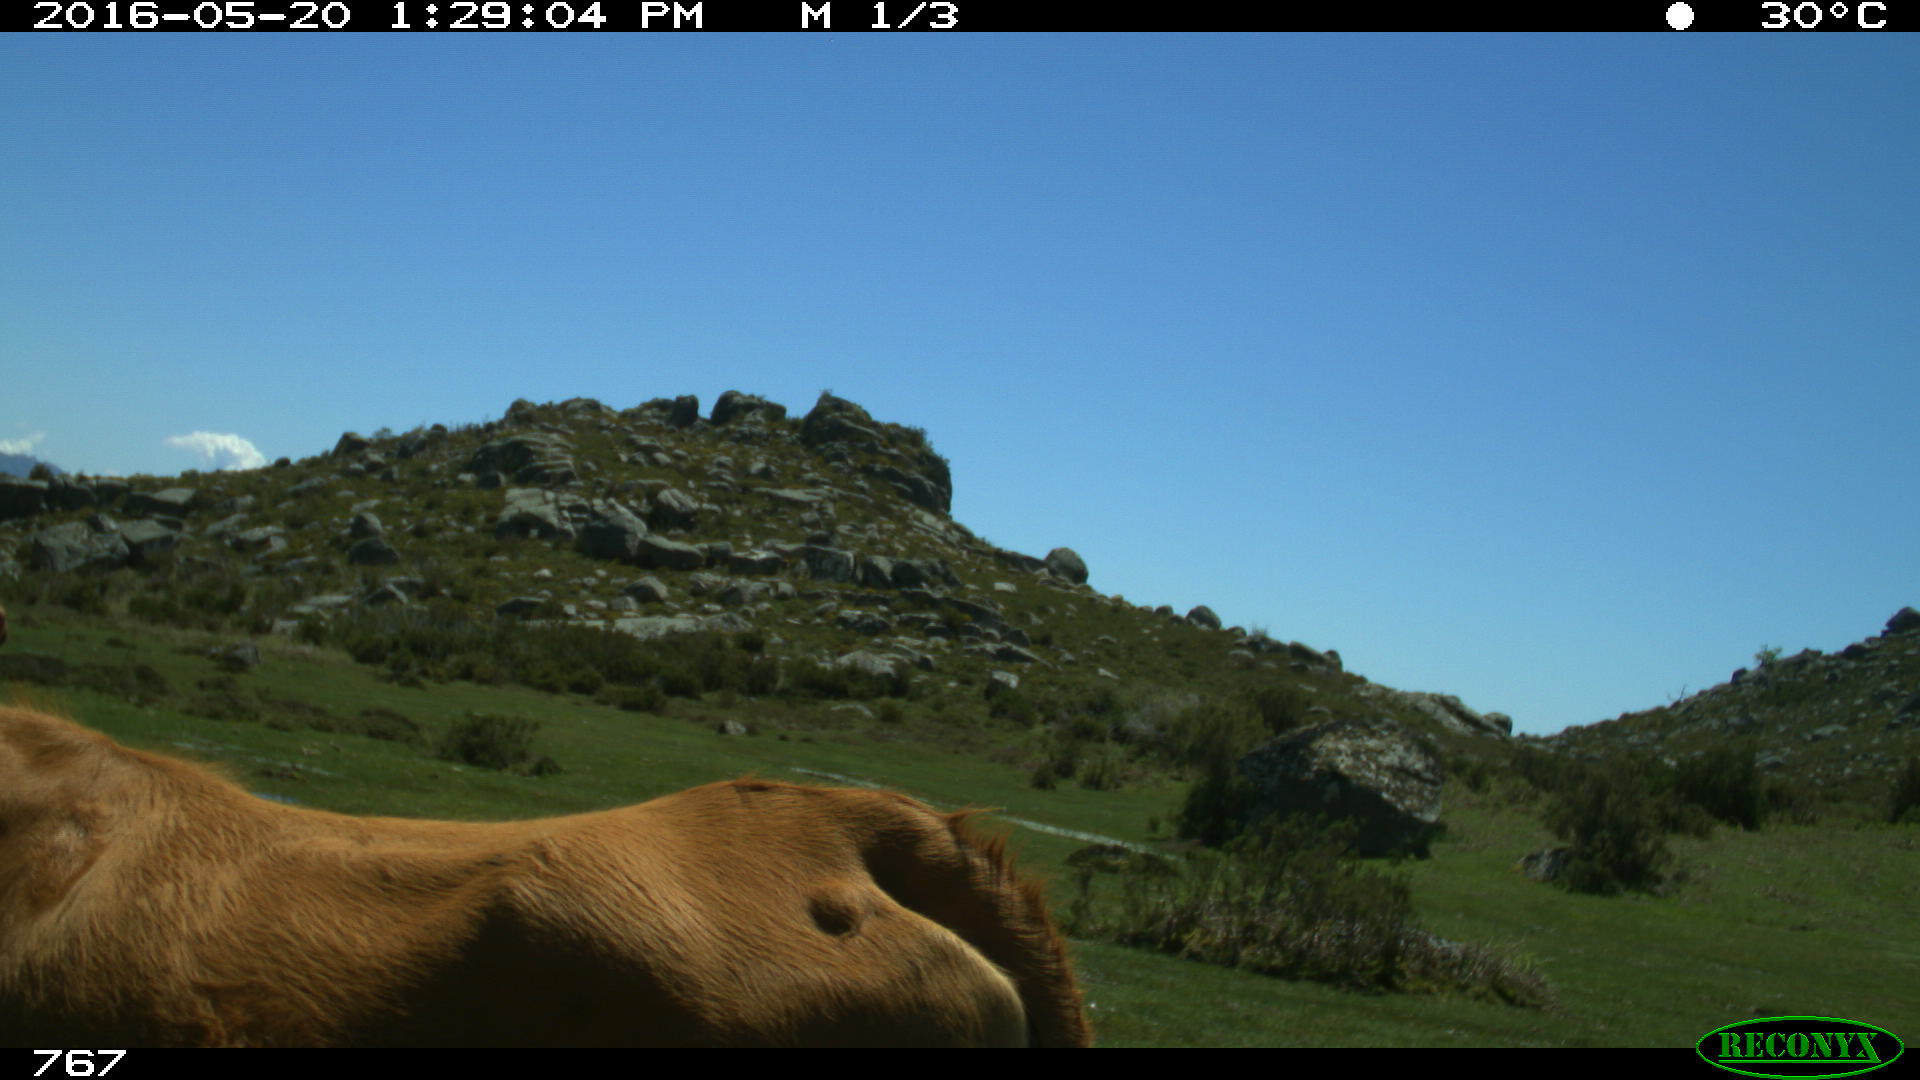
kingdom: Animalia
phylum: Chordata
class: Mammalia
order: Artiodactyla
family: Bovidae
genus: Bos
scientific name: Bos taurus
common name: Domesticated cattle
